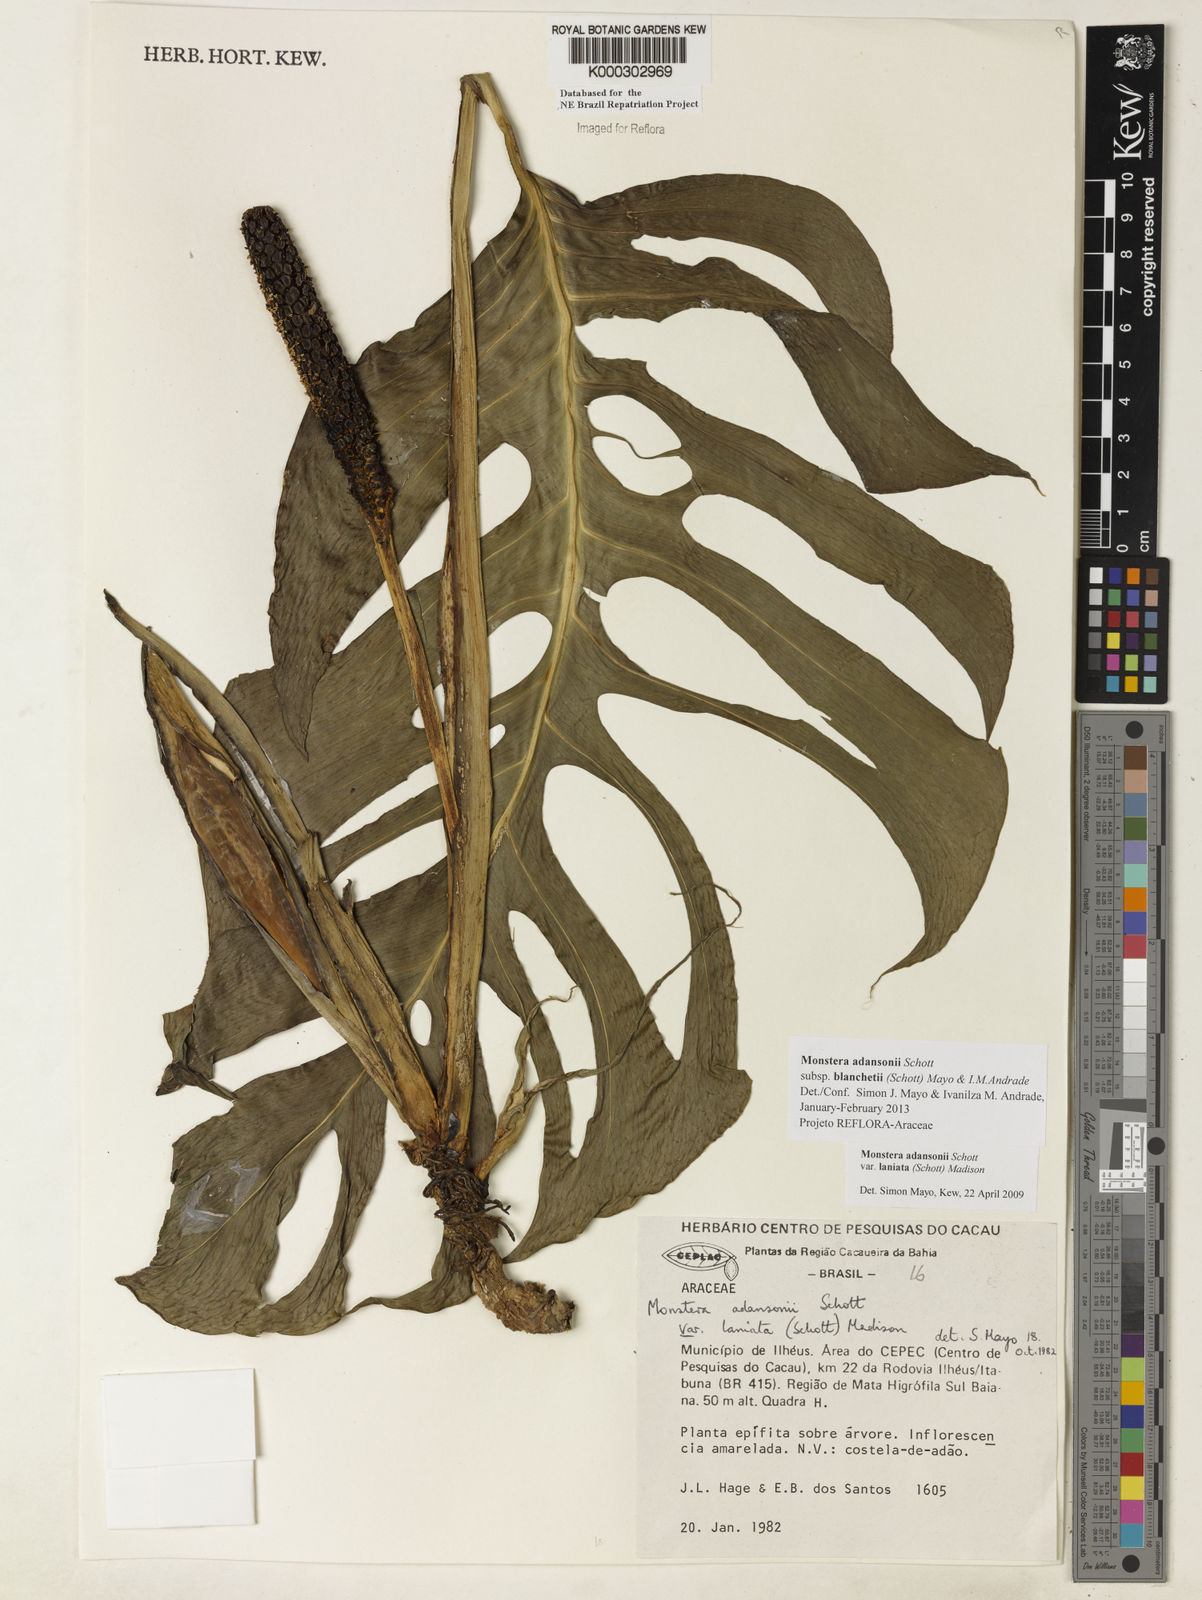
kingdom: Plantae
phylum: Tracheophyta
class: Liliopsida
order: Alismatales
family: Araceae
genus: Monstera
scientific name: Monstera adansonii
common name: Tarovine
